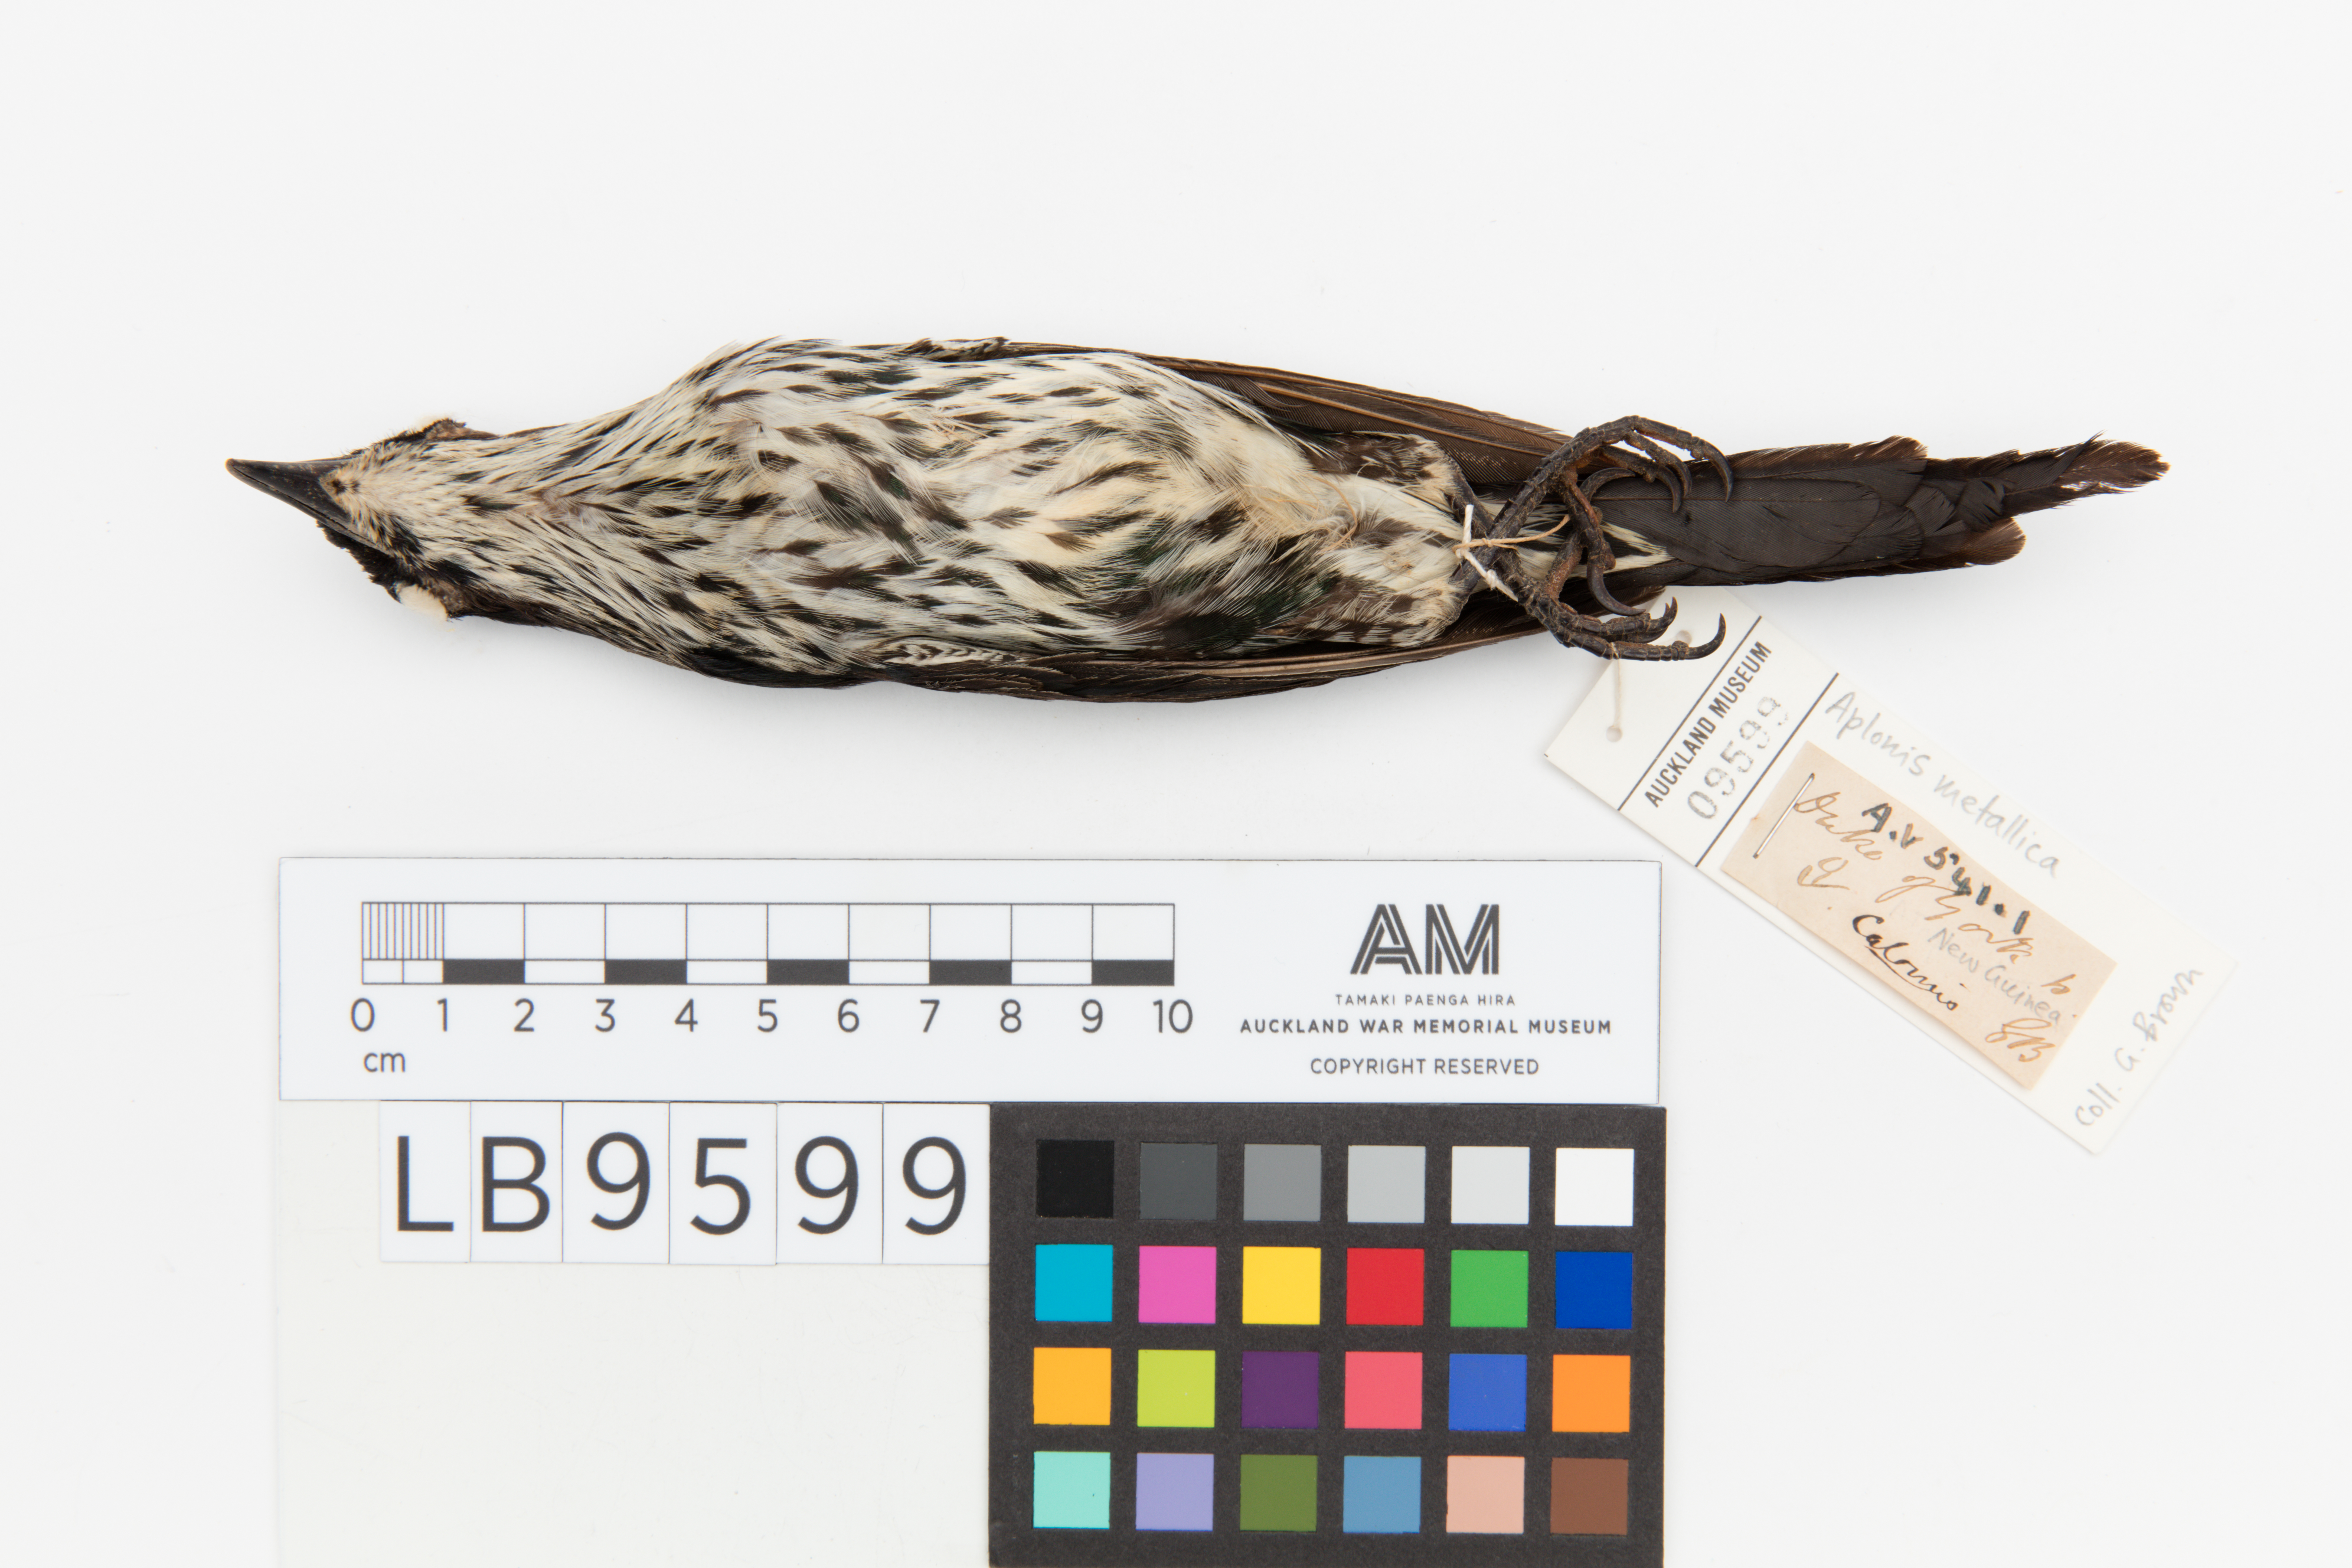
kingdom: Animalia
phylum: Chordata
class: Aves
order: Passeriformes
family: Sturnidae
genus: Aplonis
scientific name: Aplonis metallica
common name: Metallic starling
